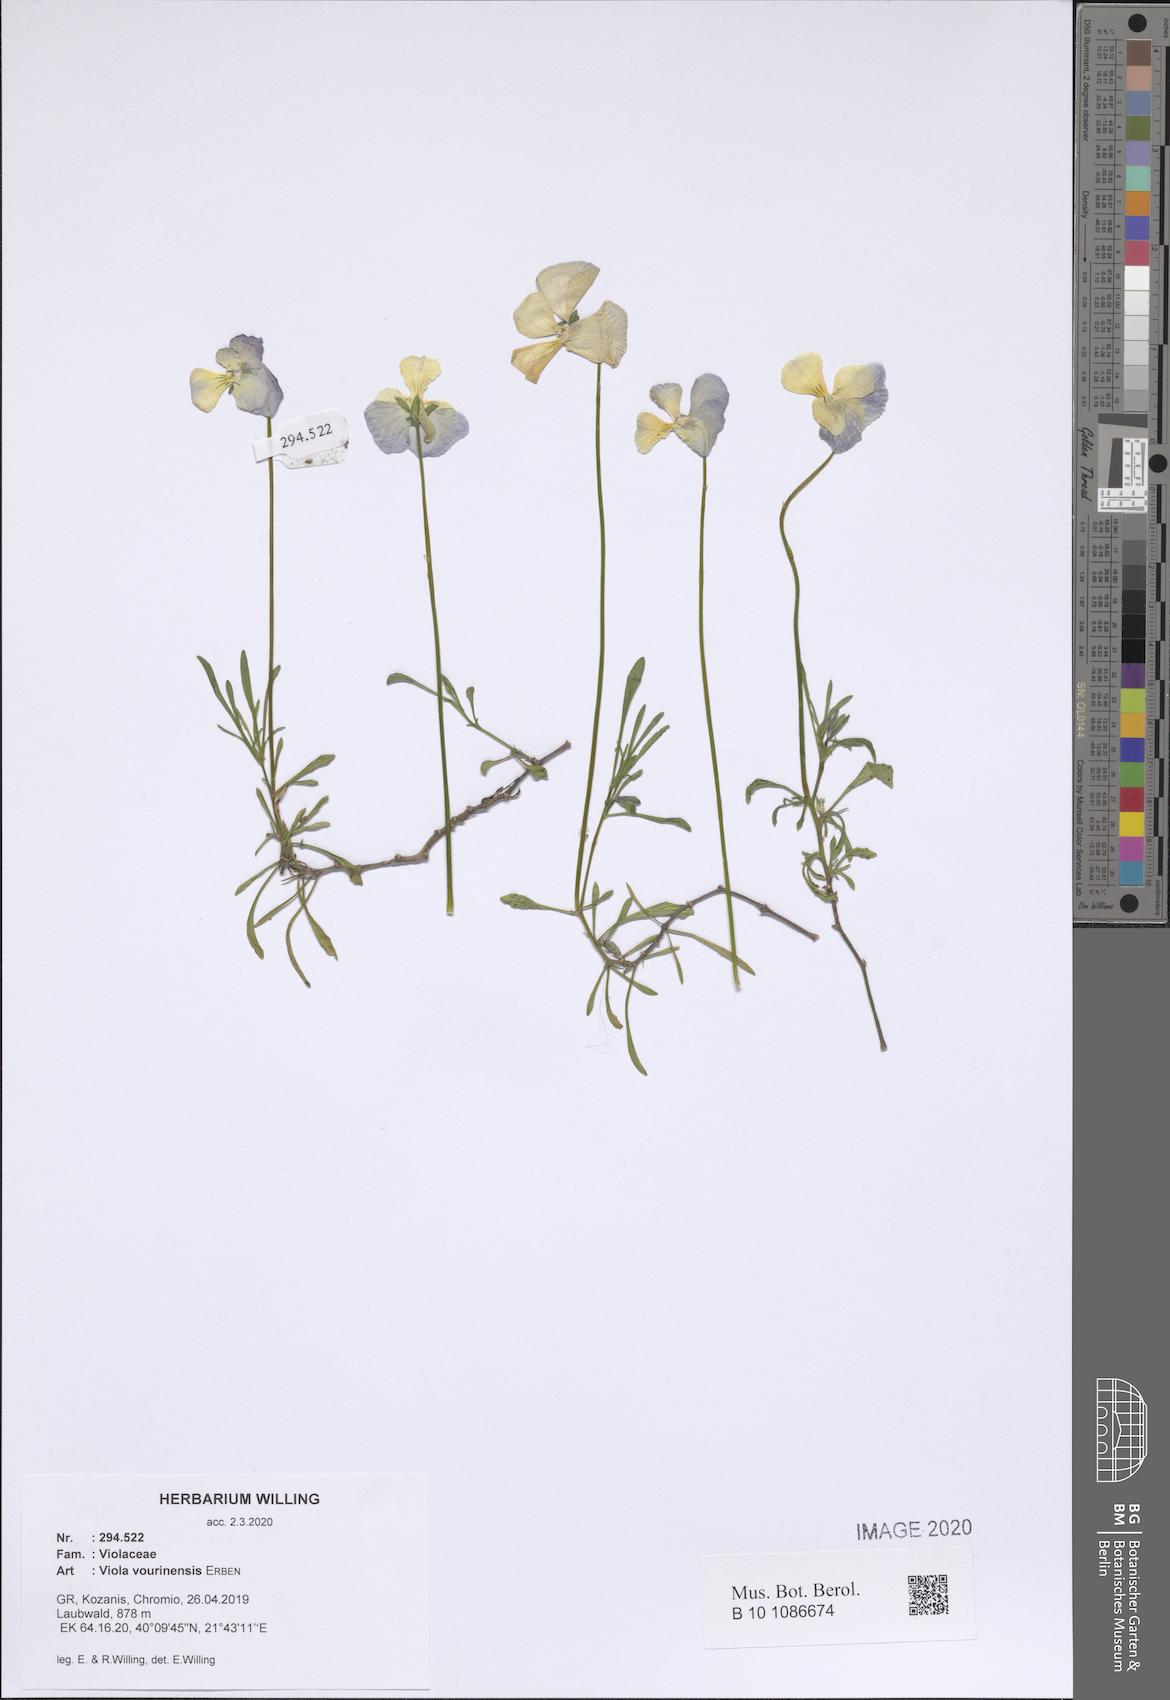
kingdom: Plantae
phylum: Tracheophyta
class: Magnoliopsida
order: Malpighiales
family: Violaceae
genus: Viola
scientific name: Viola vourinensis
